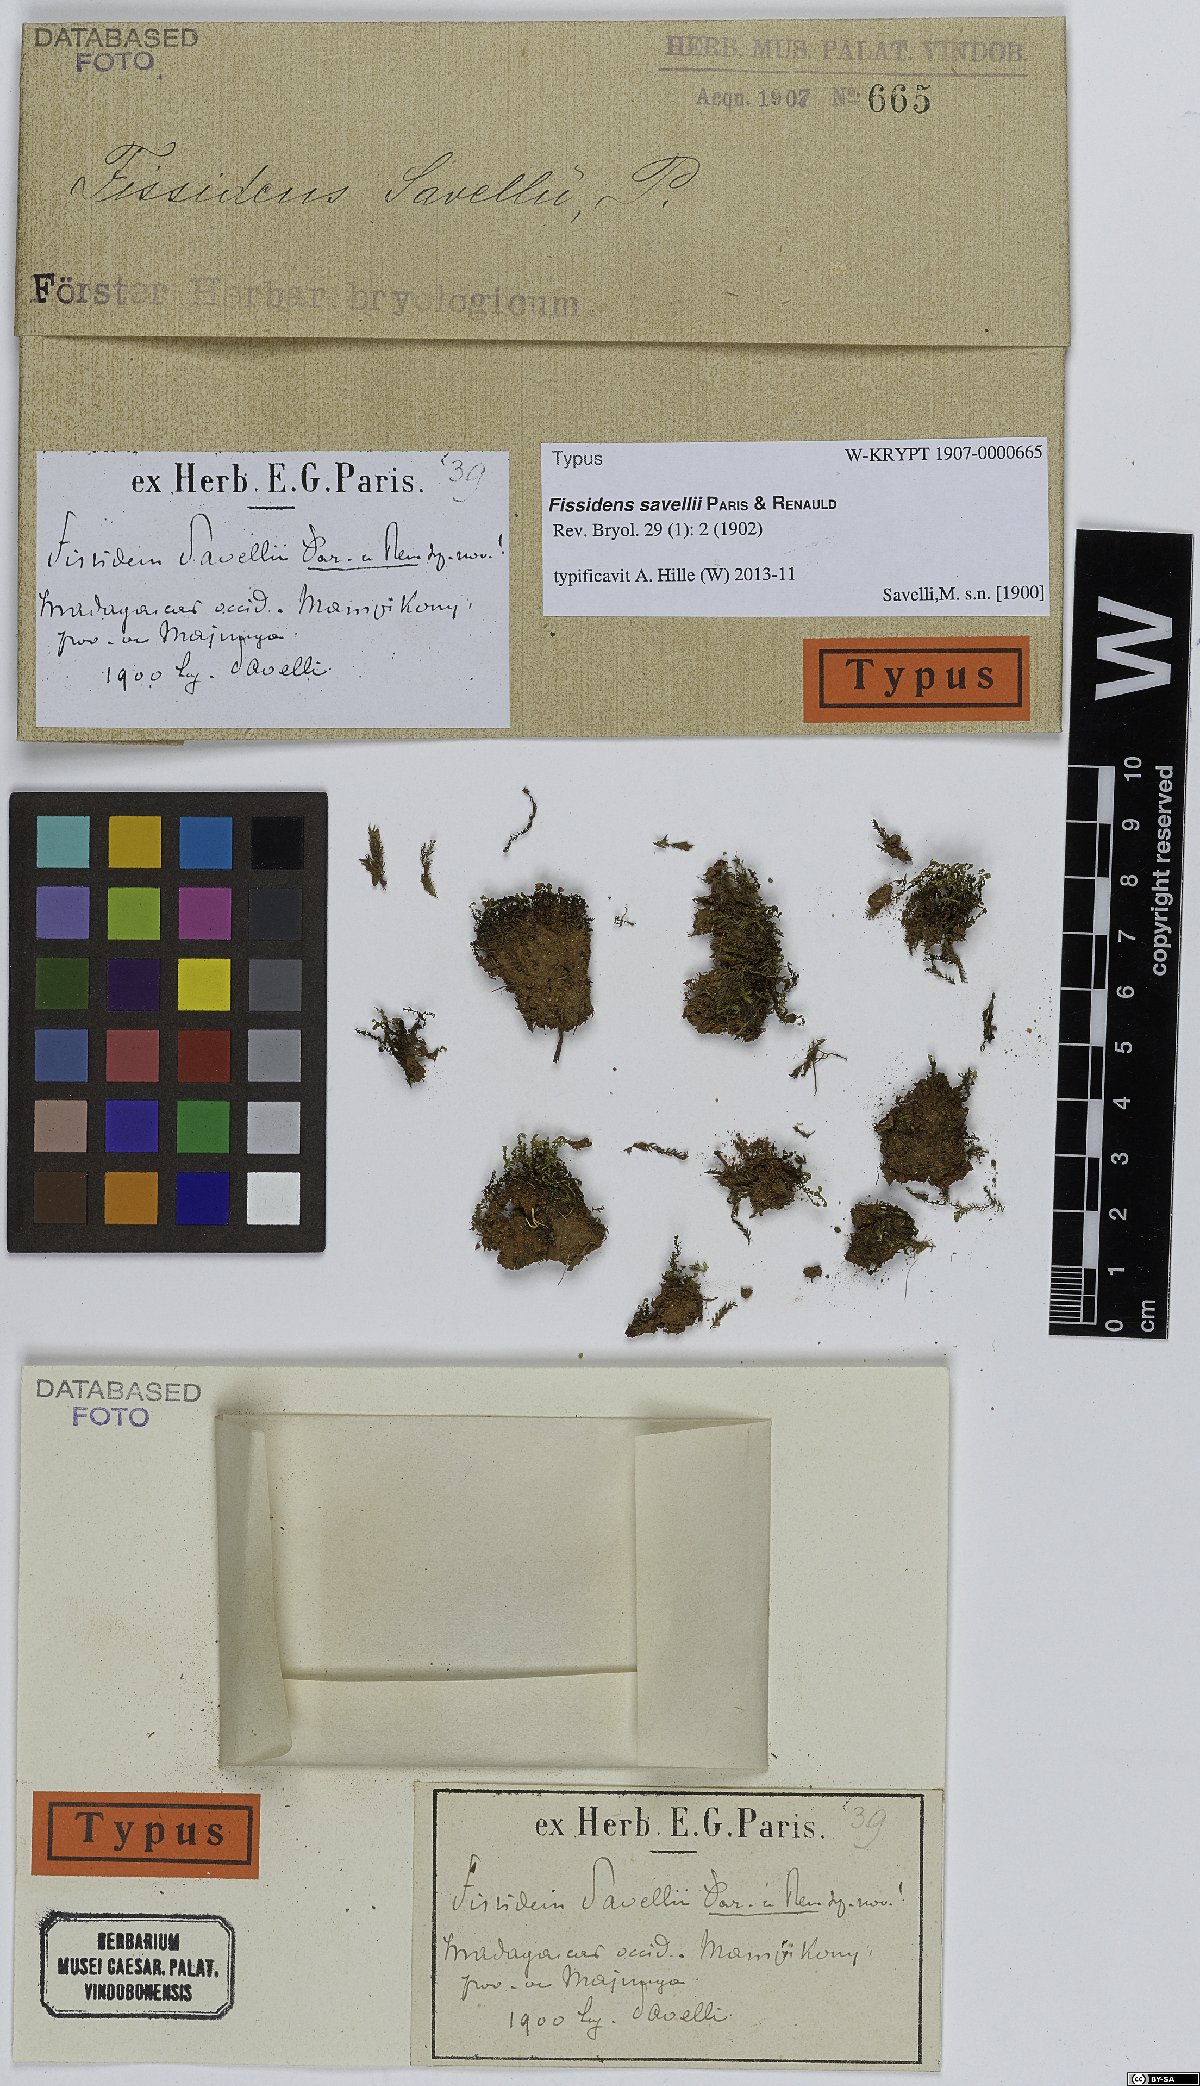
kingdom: Plantae
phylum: Bryophyta
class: Bryopsida
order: Dicranales
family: Fissidentaceae
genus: Fissidens
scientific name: Fissidens crispulus
